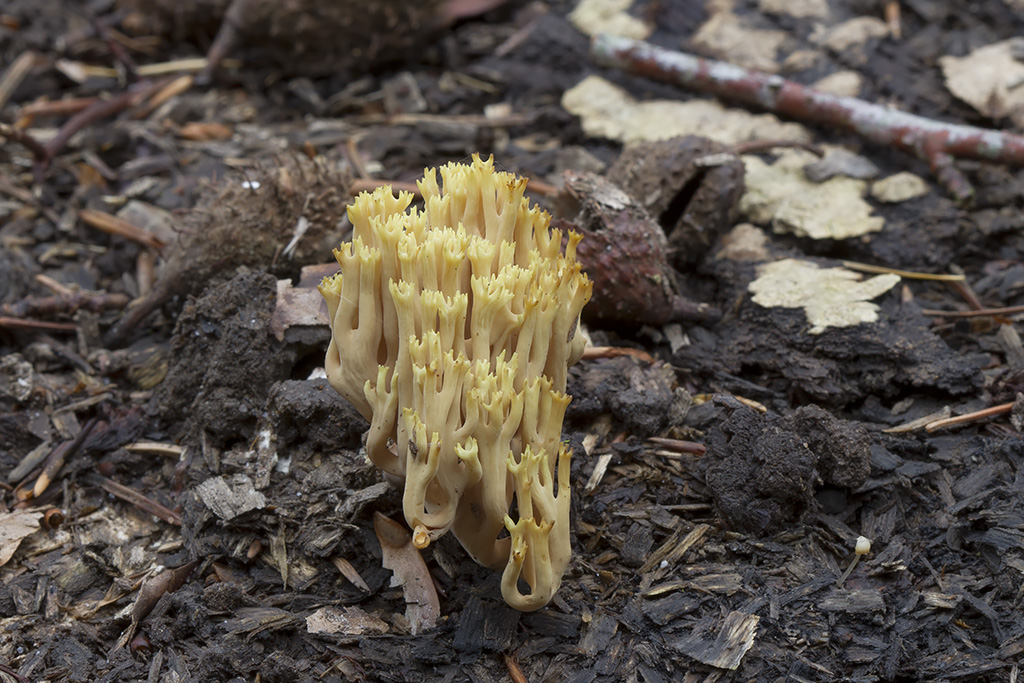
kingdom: Fungi
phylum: Basidiomycota
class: Agaricomycetes
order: Gomphales
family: Gomphaceae
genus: Ramaria
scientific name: Ramaria stricta
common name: rank koralsvamp
